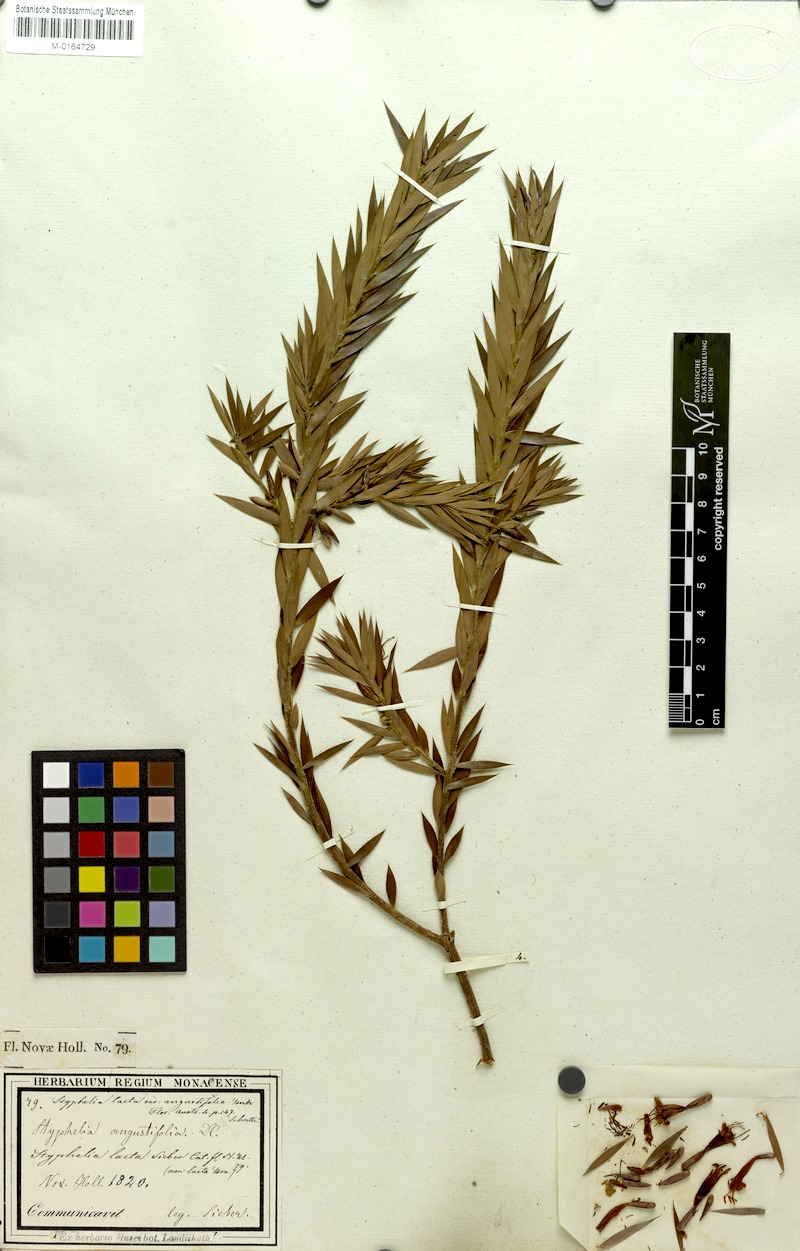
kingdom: Plantae
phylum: Tracheophyta
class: Magnoliopsida
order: Ericales
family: Ericaceae
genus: Styphelia
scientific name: Styphelia laeta
